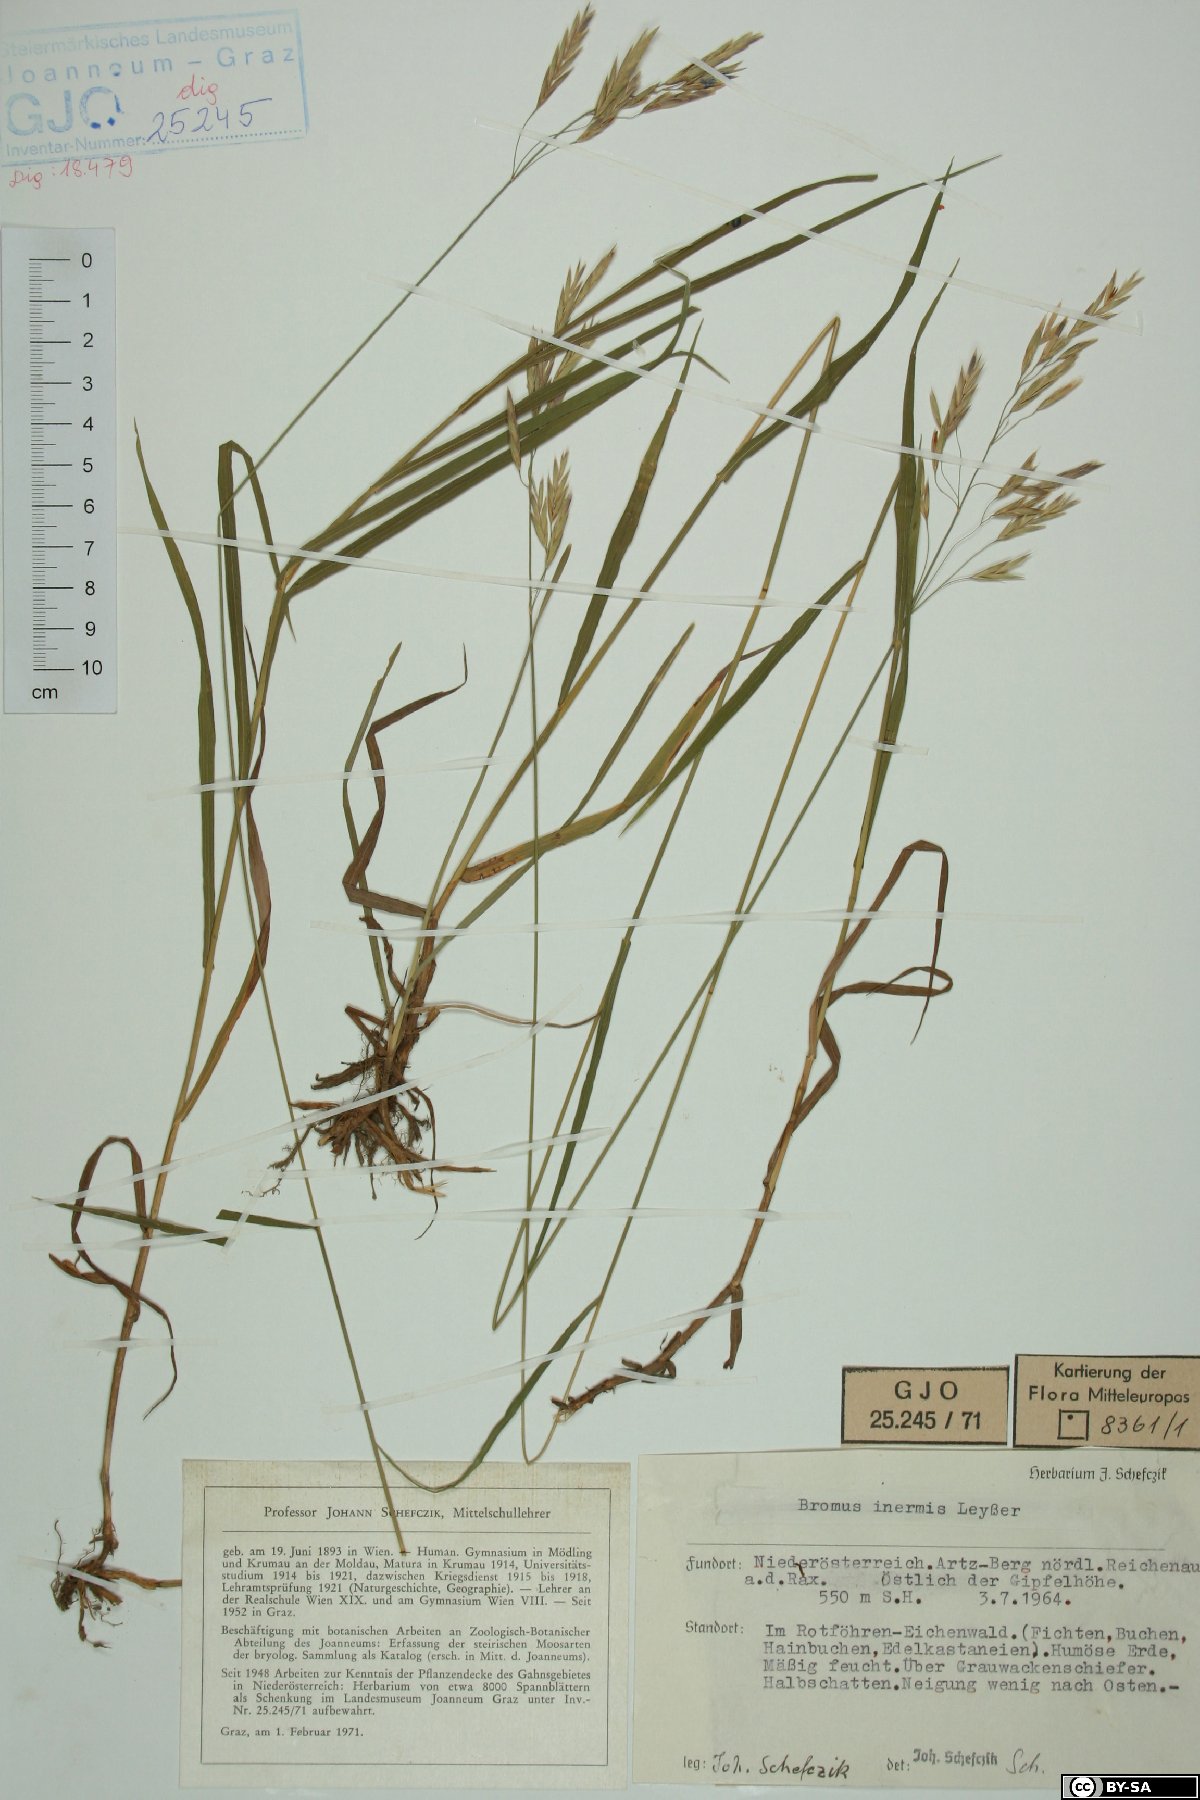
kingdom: Plantae
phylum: Tracheophyta
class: Liliopsida
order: Poales
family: Poaceae
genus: Bromus
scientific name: Bromus inermis
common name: Smooth brome
